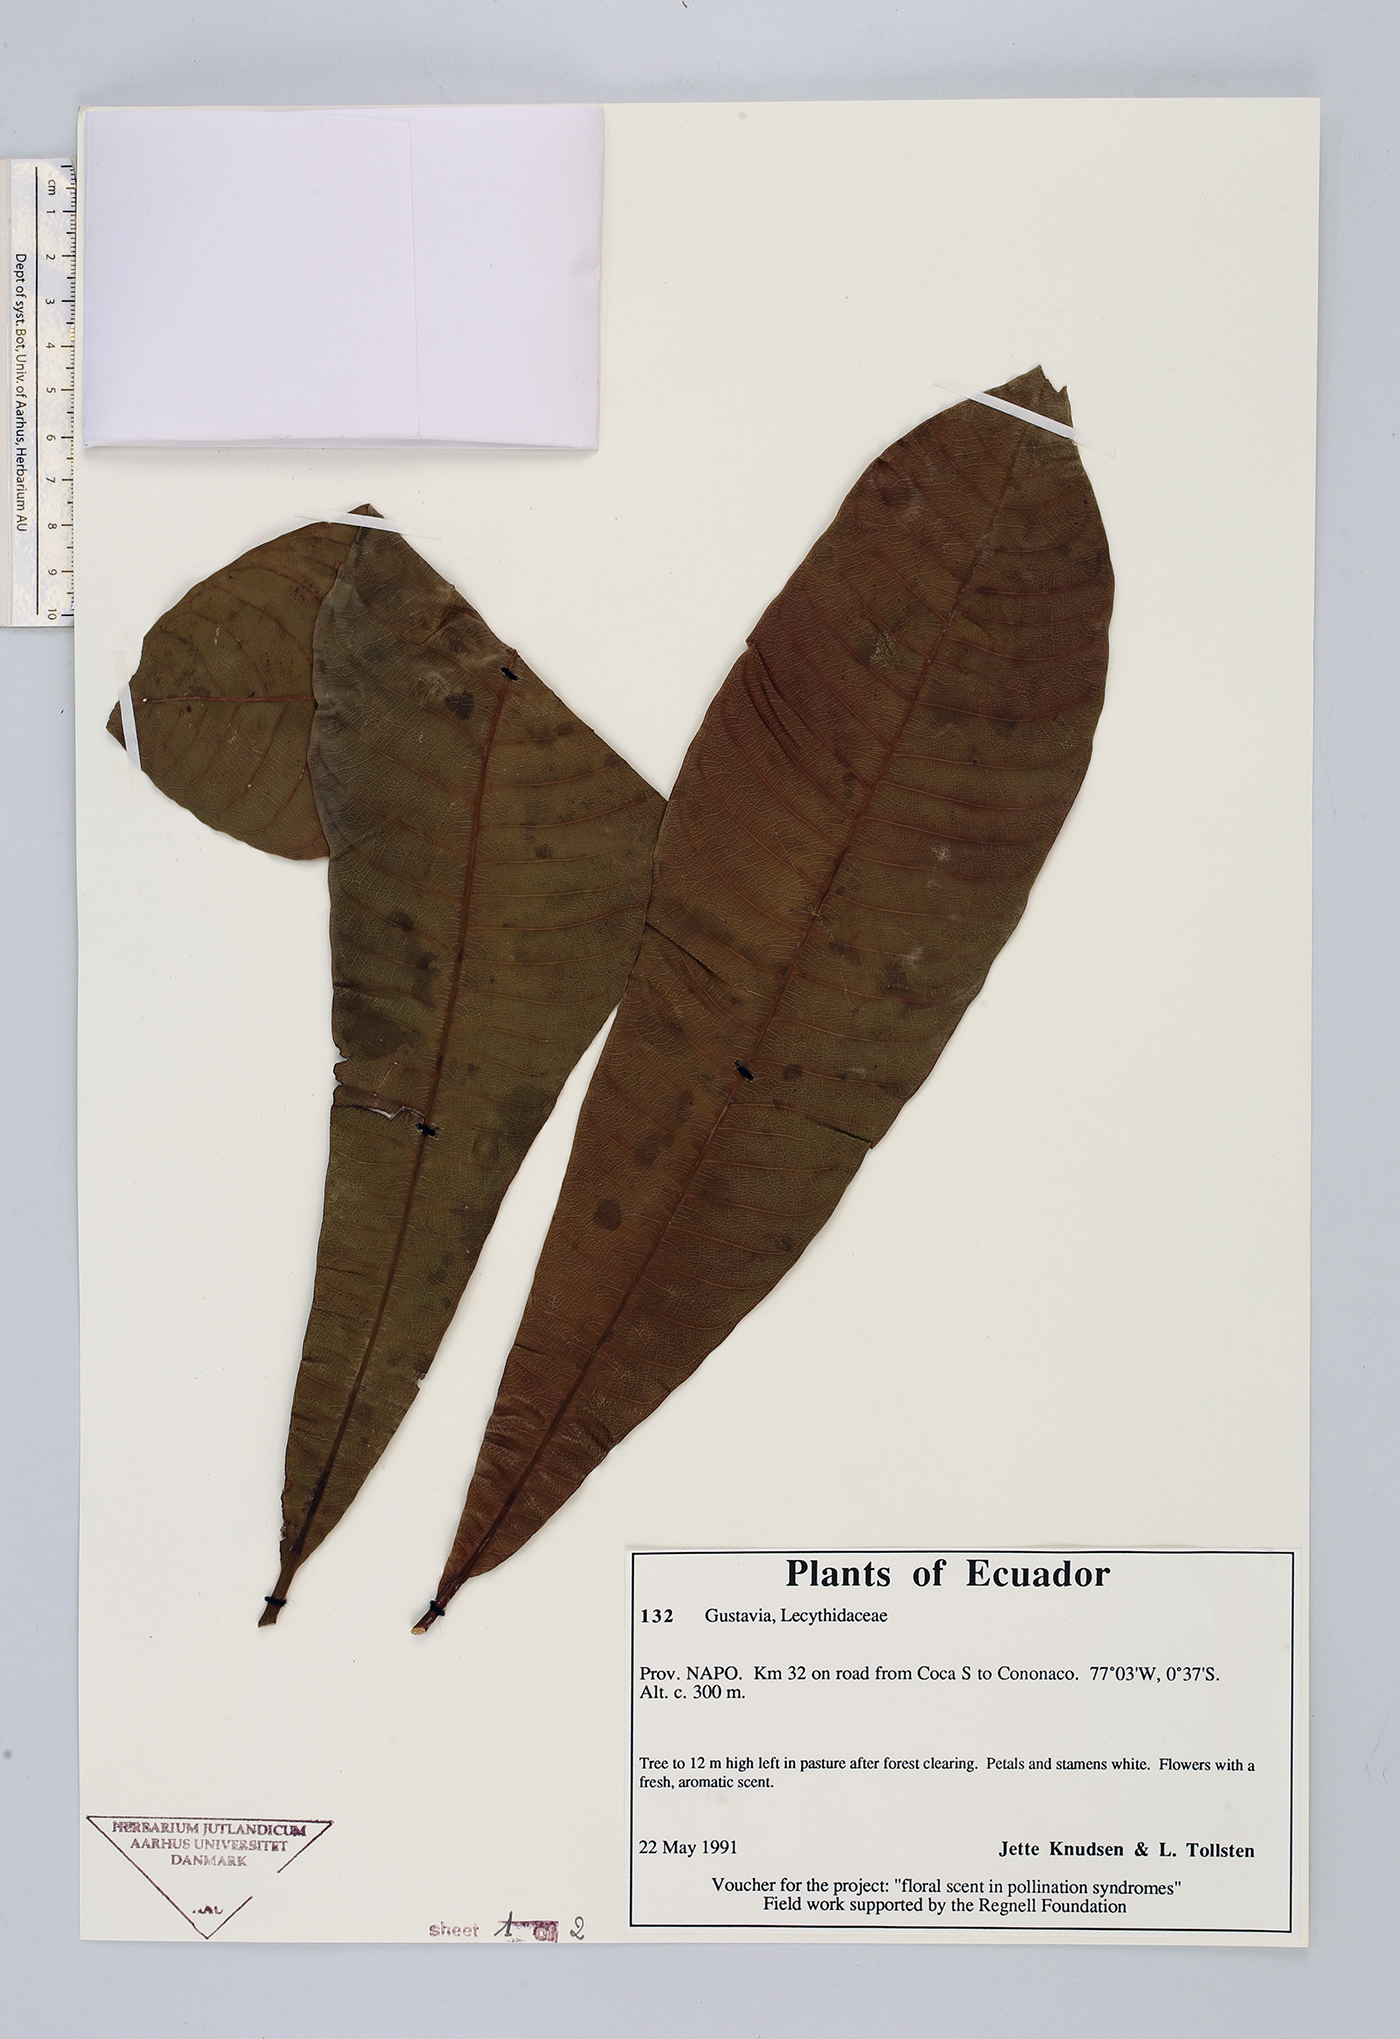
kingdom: Plantae
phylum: Tracheophyta
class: Magnoliopsida
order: Ericales
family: Lecythidaceae
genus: Gustavia
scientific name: Gustavia
